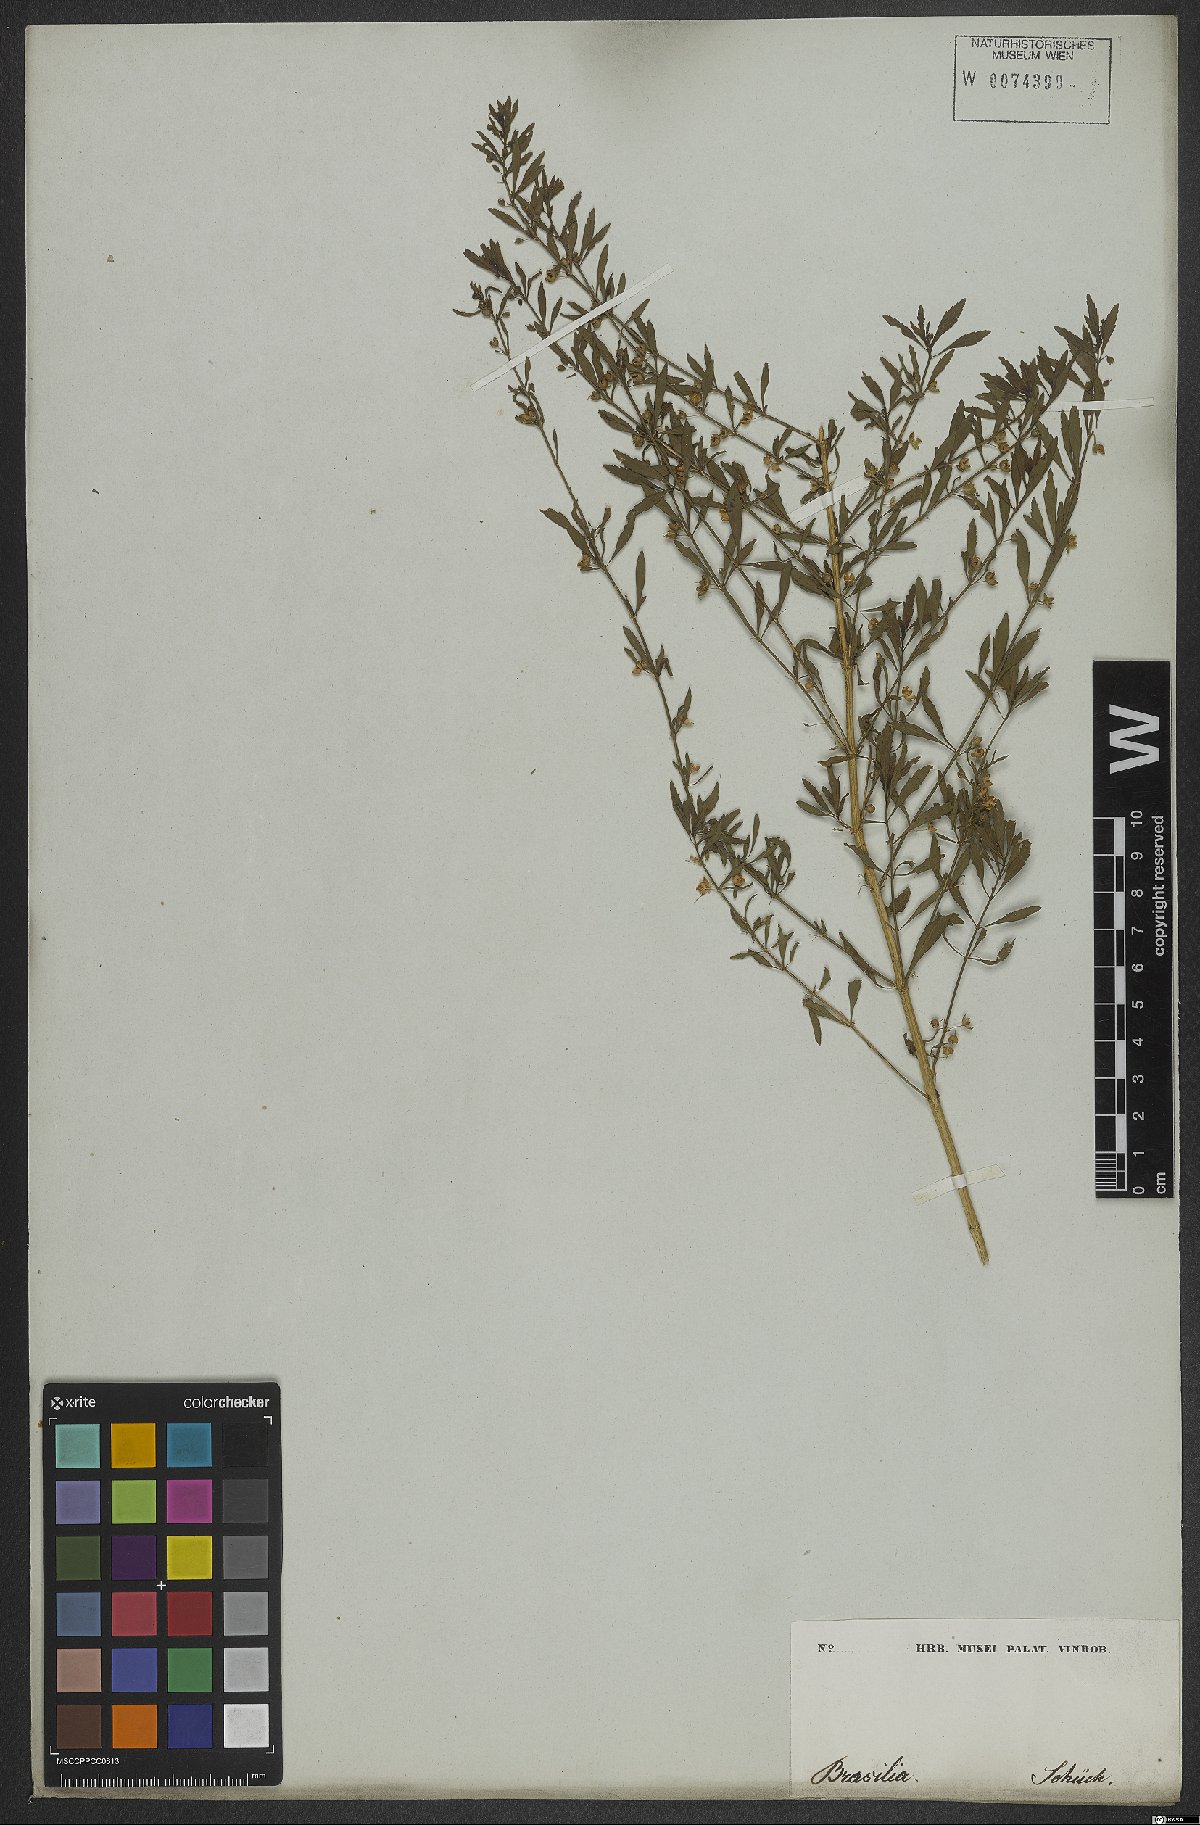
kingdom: Plantae
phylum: Tracheophyta
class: Magnoliopsida
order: Lamiales
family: Plantaginaceae
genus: Scoparia
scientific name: Scoparia dulcis
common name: Scoparia-weed
